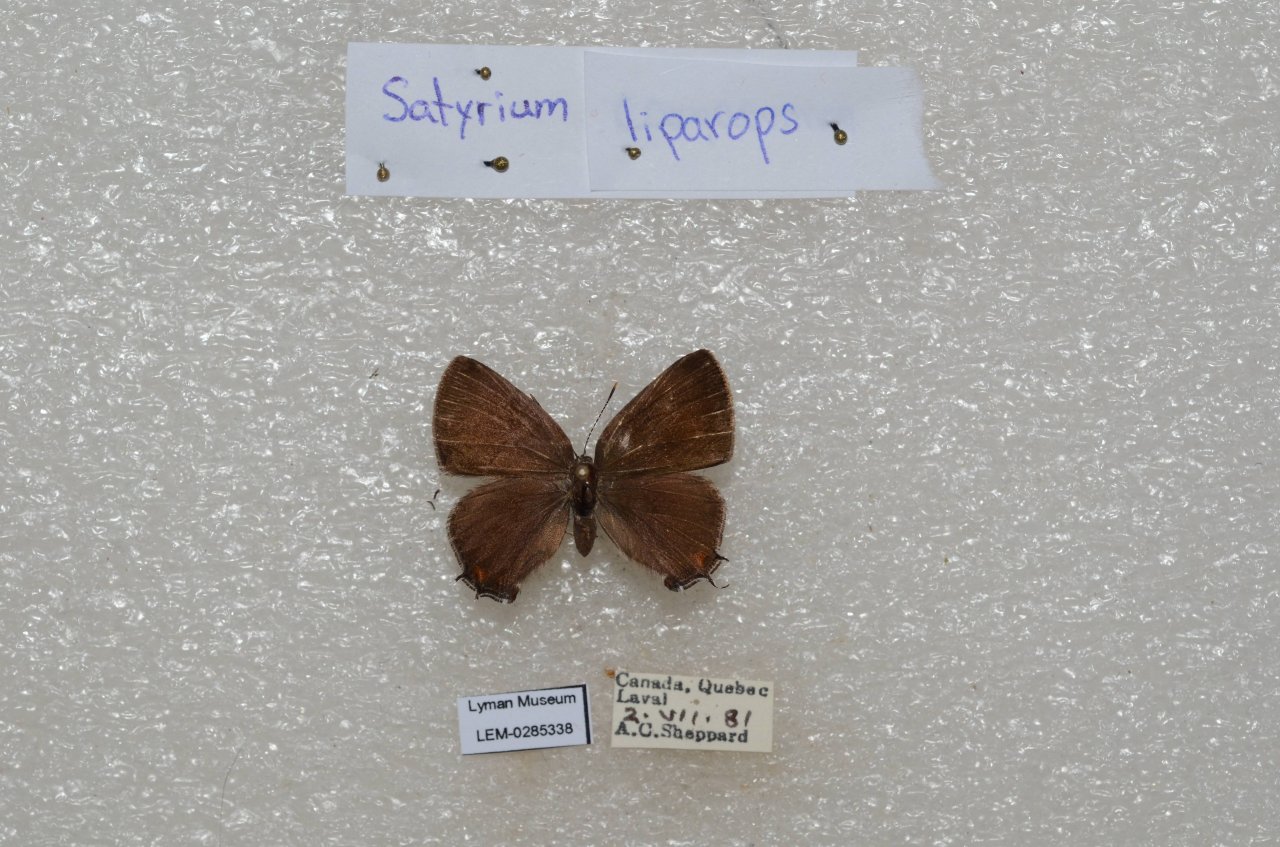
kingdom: Animalia
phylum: Arthropoda
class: Insecta
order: Lepidoptera
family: Lycaenidae
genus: Satyrium
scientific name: Satyrium liparops
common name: Striped Hairstreak
